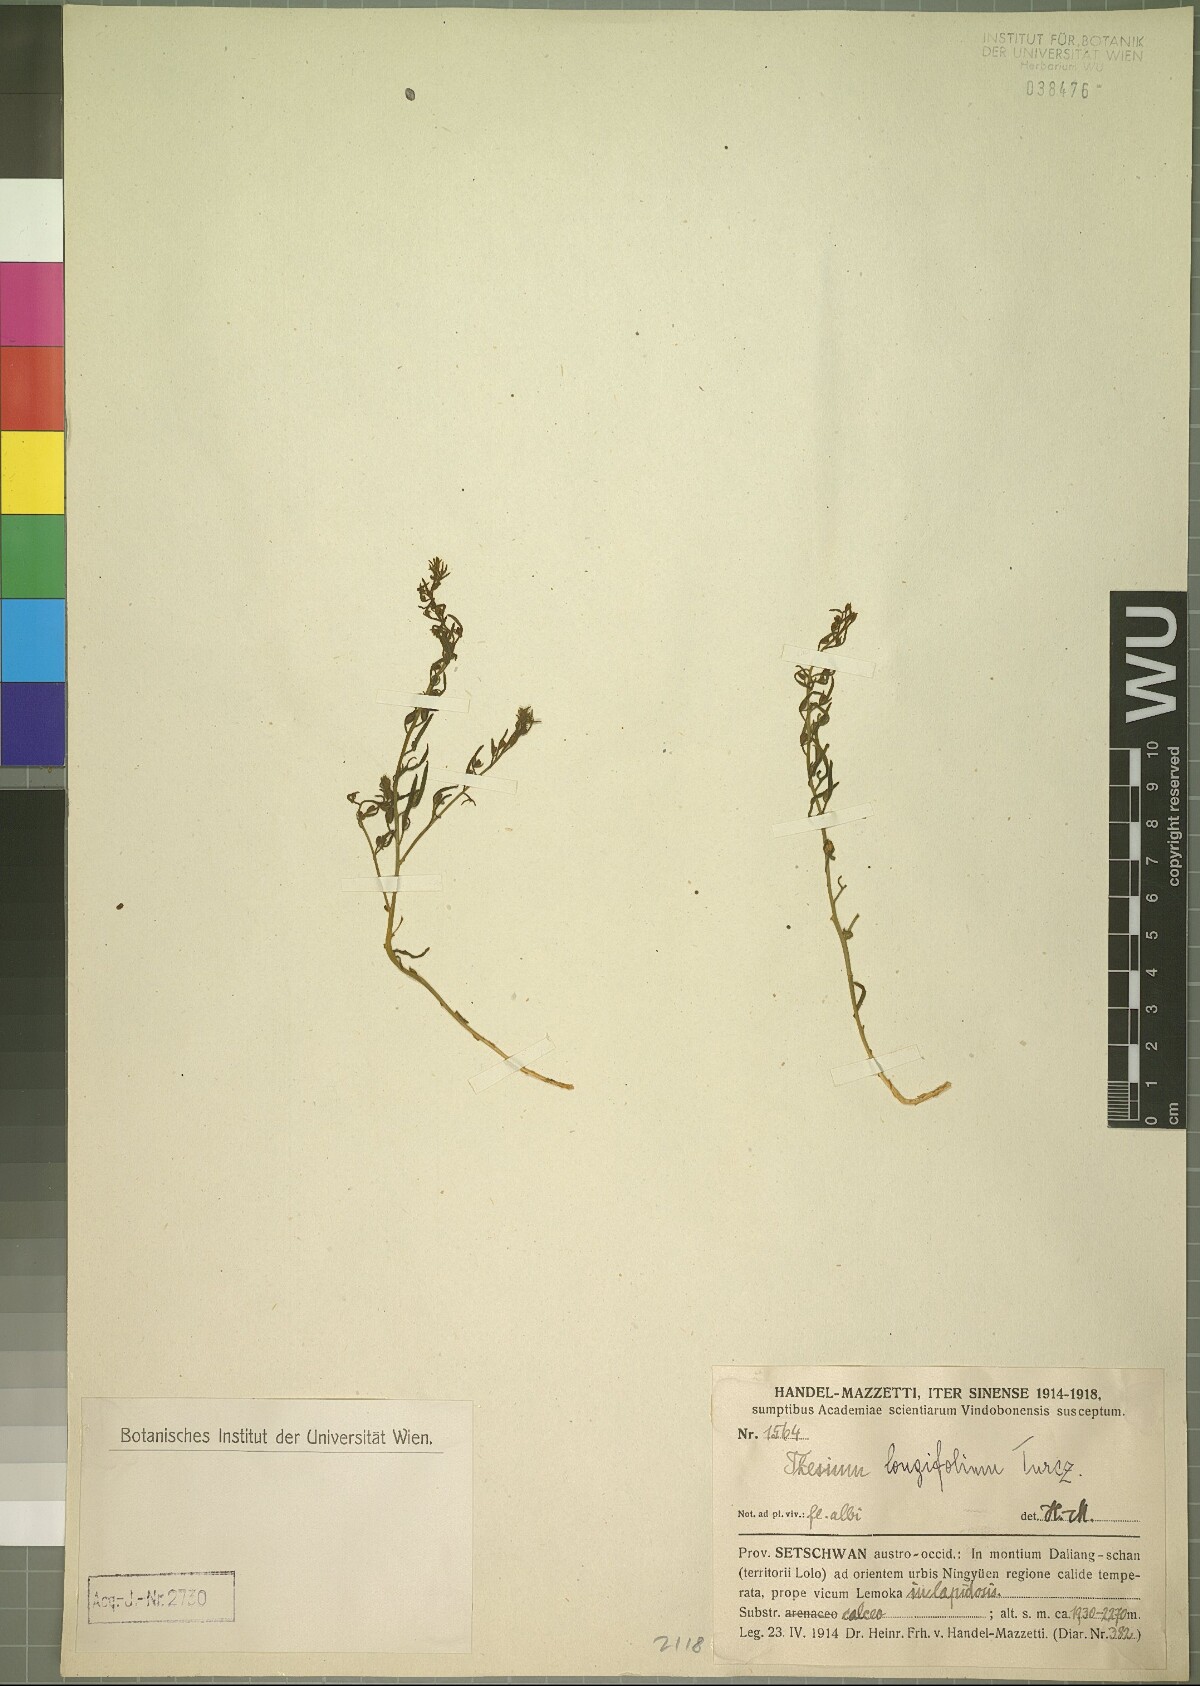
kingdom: Plantae
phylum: Tracheophyta
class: Magnoliopsida
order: Santalales
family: Thesiaceae
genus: Thesium
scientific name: Thesium longifolium
